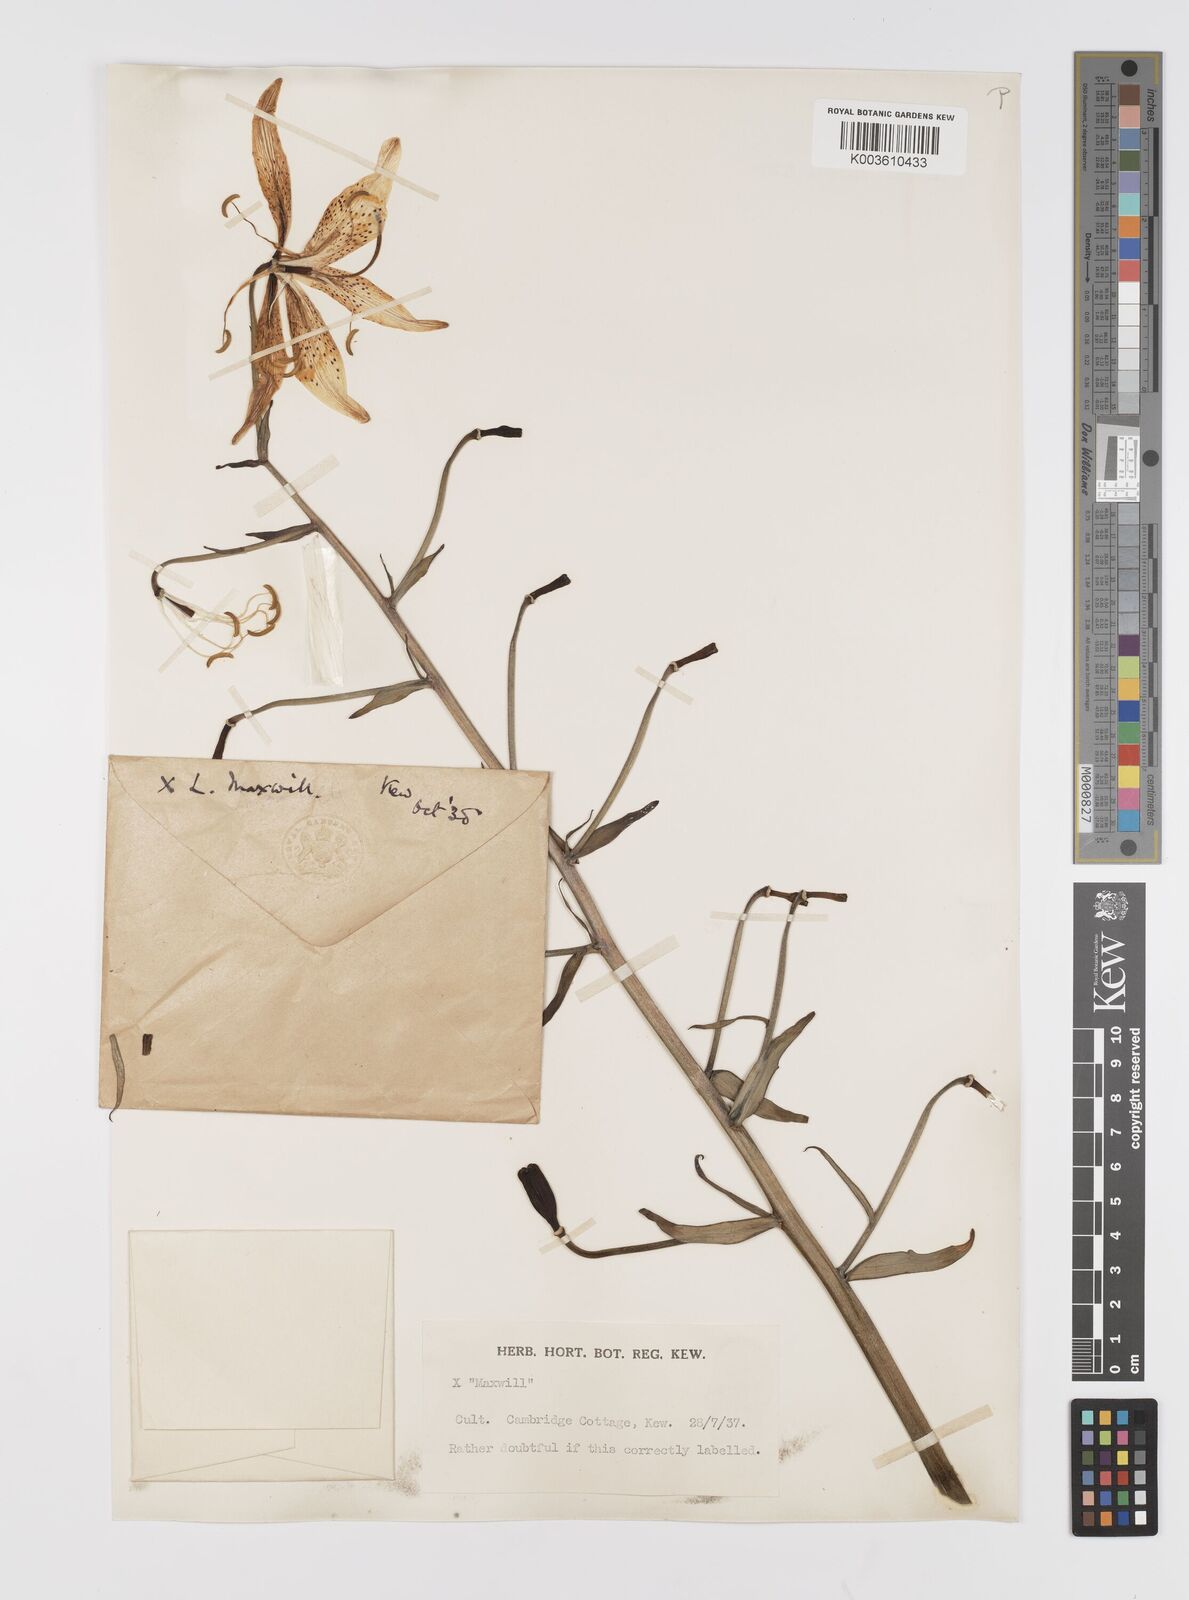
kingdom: Plantae
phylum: Tracheophyta
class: Liliopsida
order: Liliales
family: Liliaceae
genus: Lilium
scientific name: Lilium
